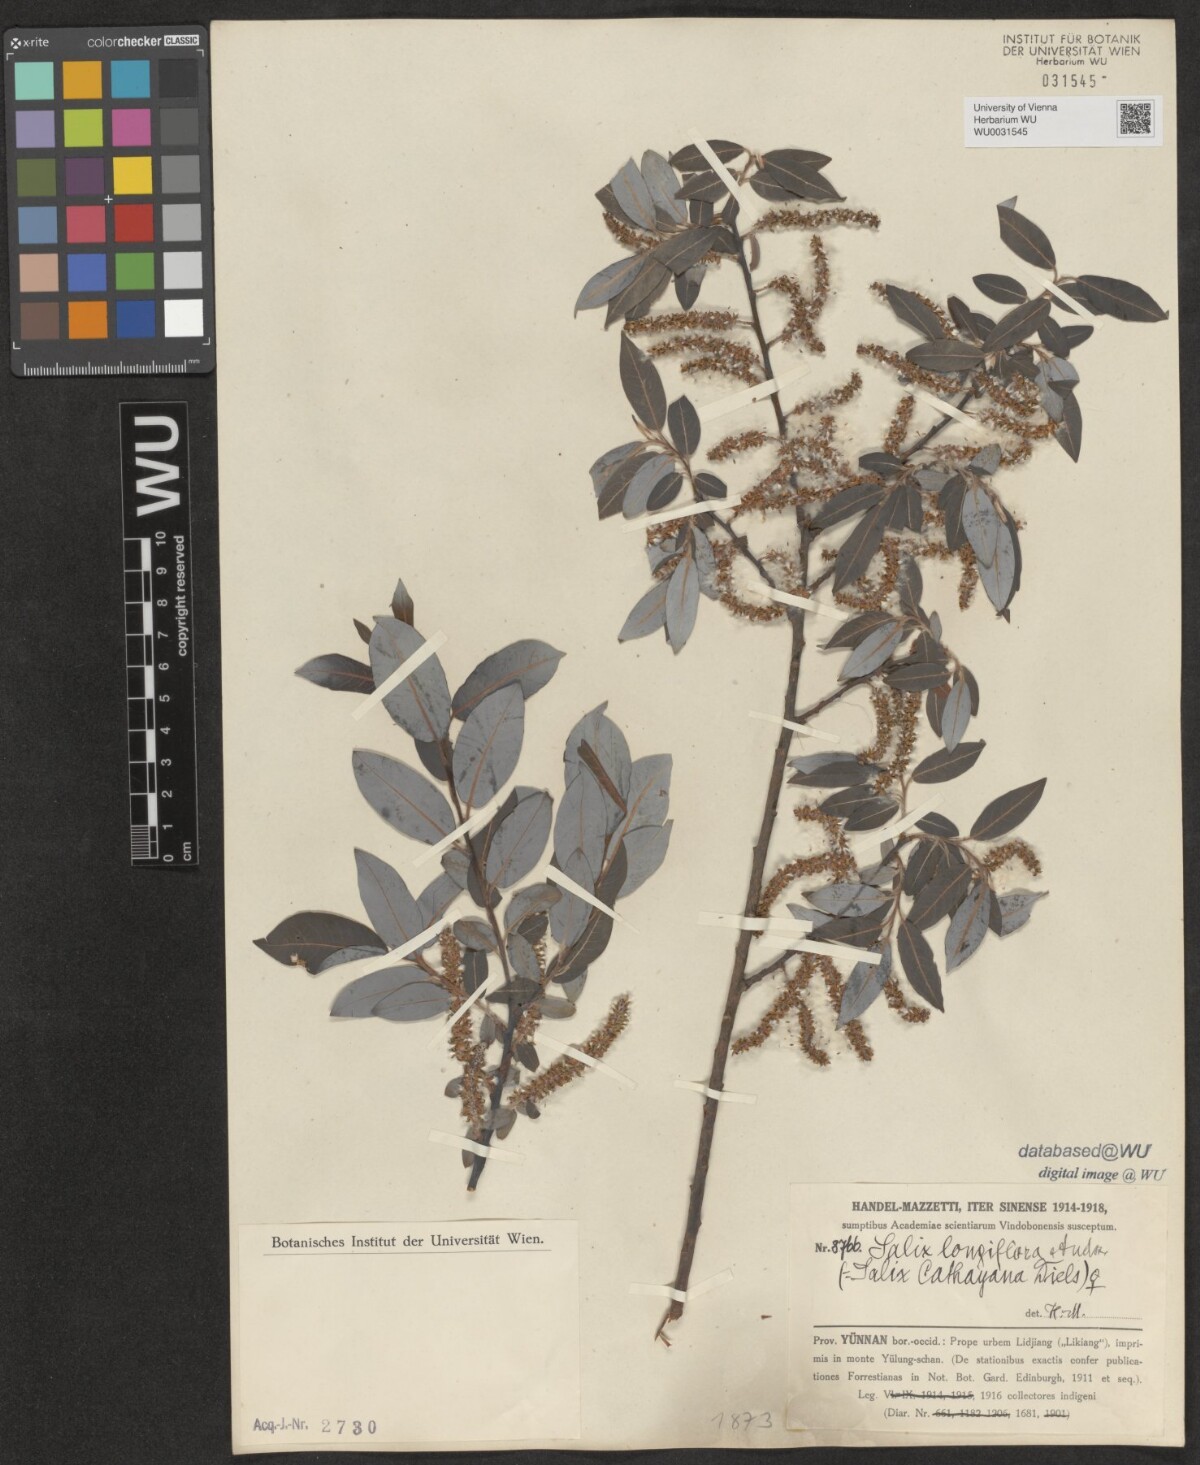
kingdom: Plantae
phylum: Tracheophyta
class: Magnoliopsida
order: Malpighiales
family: Salicaceae
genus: Salix
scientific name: Salix longiflora
